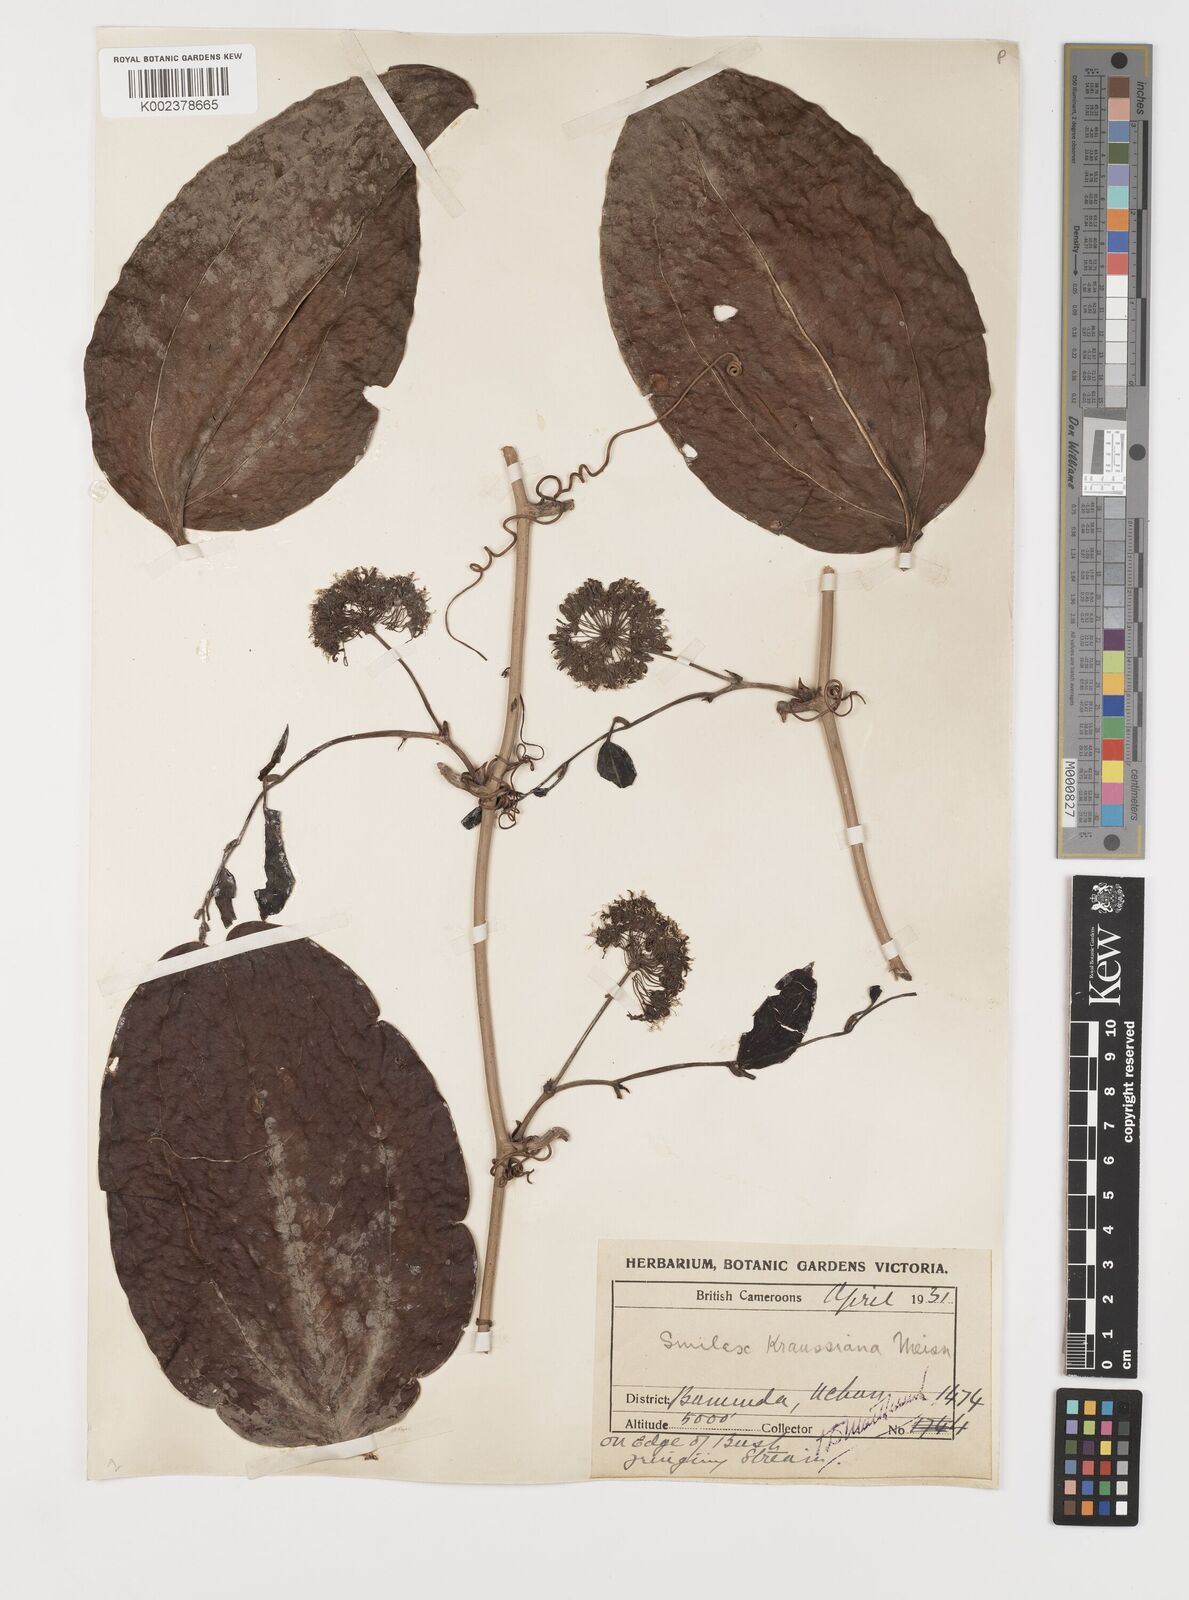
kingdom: Plantae
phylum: Tracheophyta
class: Liliopsida
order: Liliales
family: Smilacaceae
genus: Smilax
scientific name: Smilax anceps
